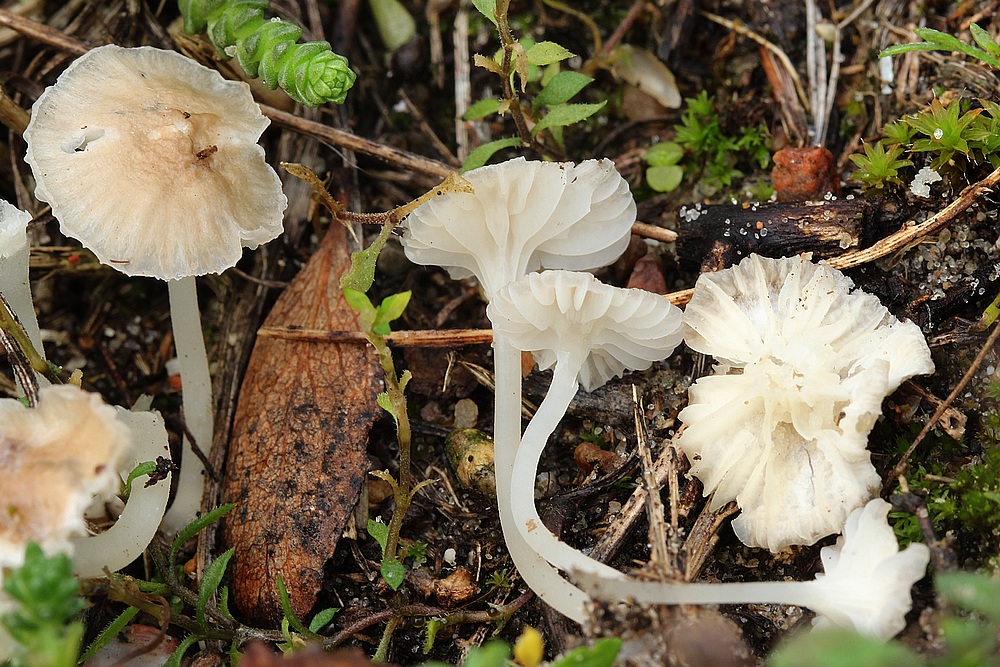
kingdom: Fungi
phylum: Basidiomycota
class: Agaricomycetes
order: Agaricales
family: Mycenaceae
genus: Hemimycena
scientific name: Hemimycena mairei
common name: voks-huesvamp
